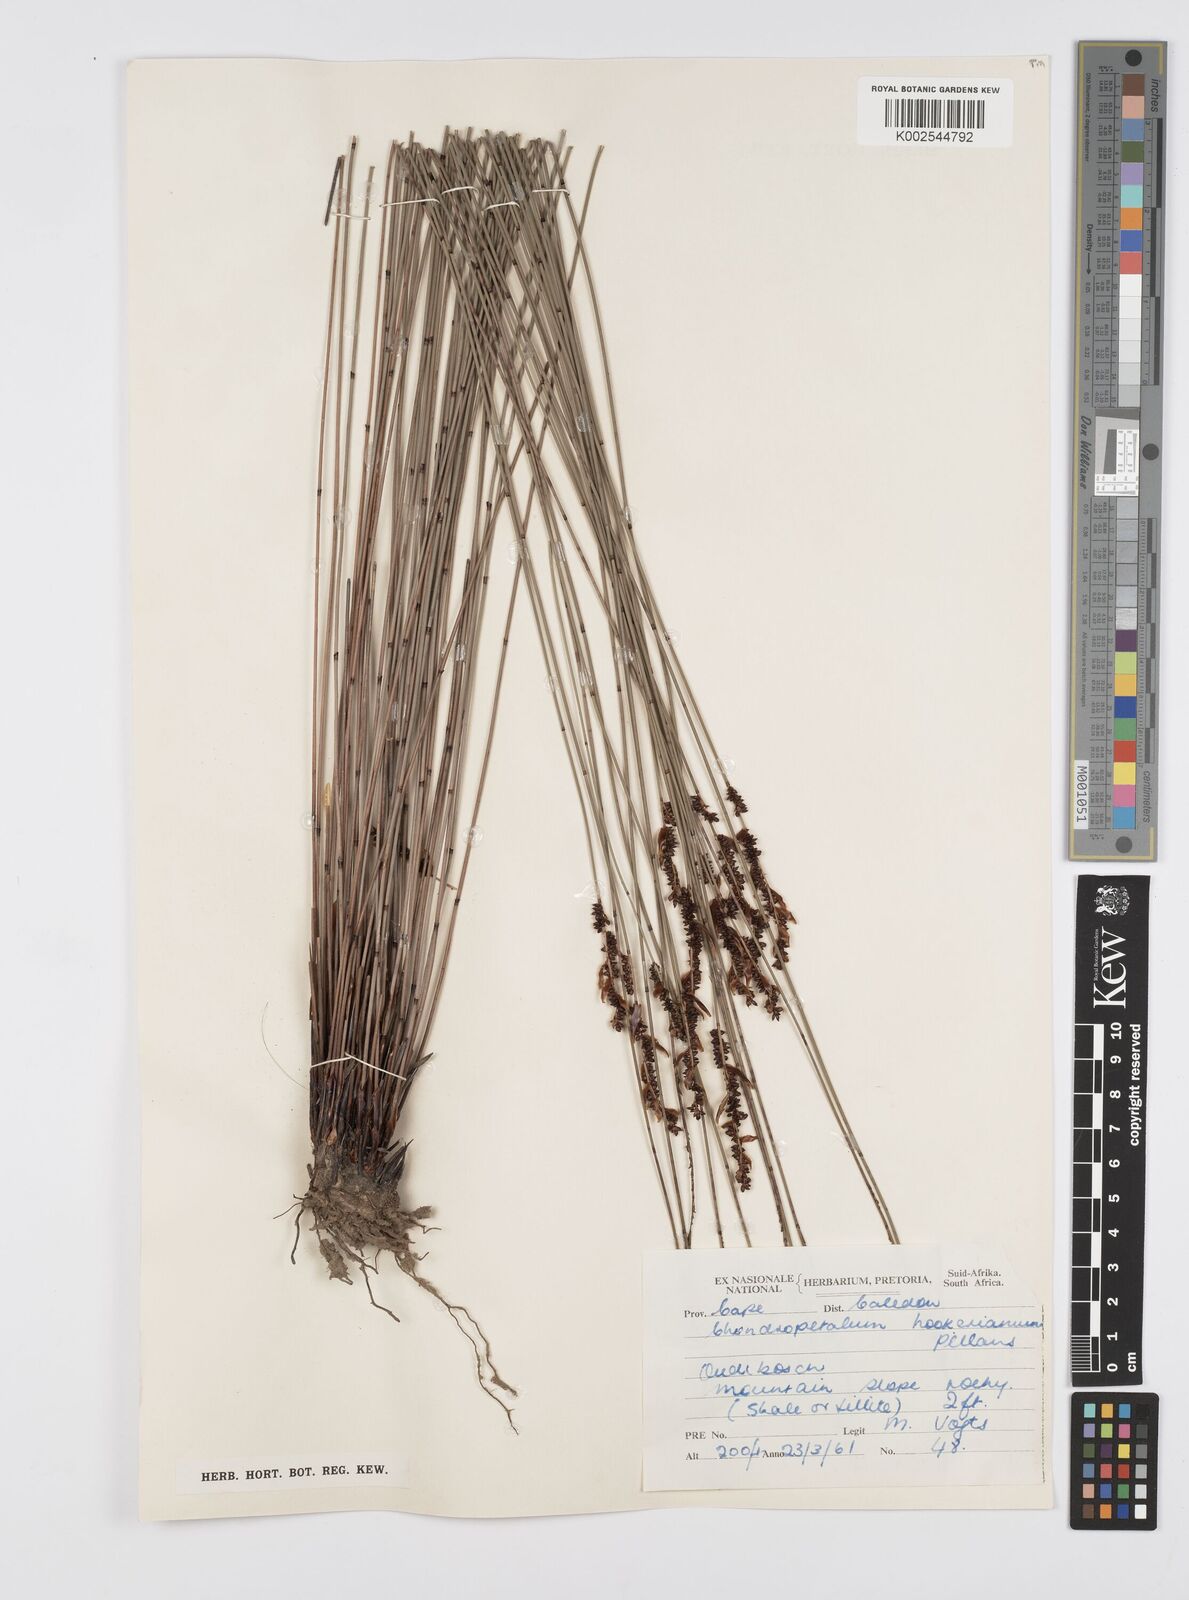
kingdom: Plantae
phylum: Tracheophyta
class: Liliopsida
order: Poales
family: Restionaceae
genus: Elegia
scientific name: Elegia hookeriana
